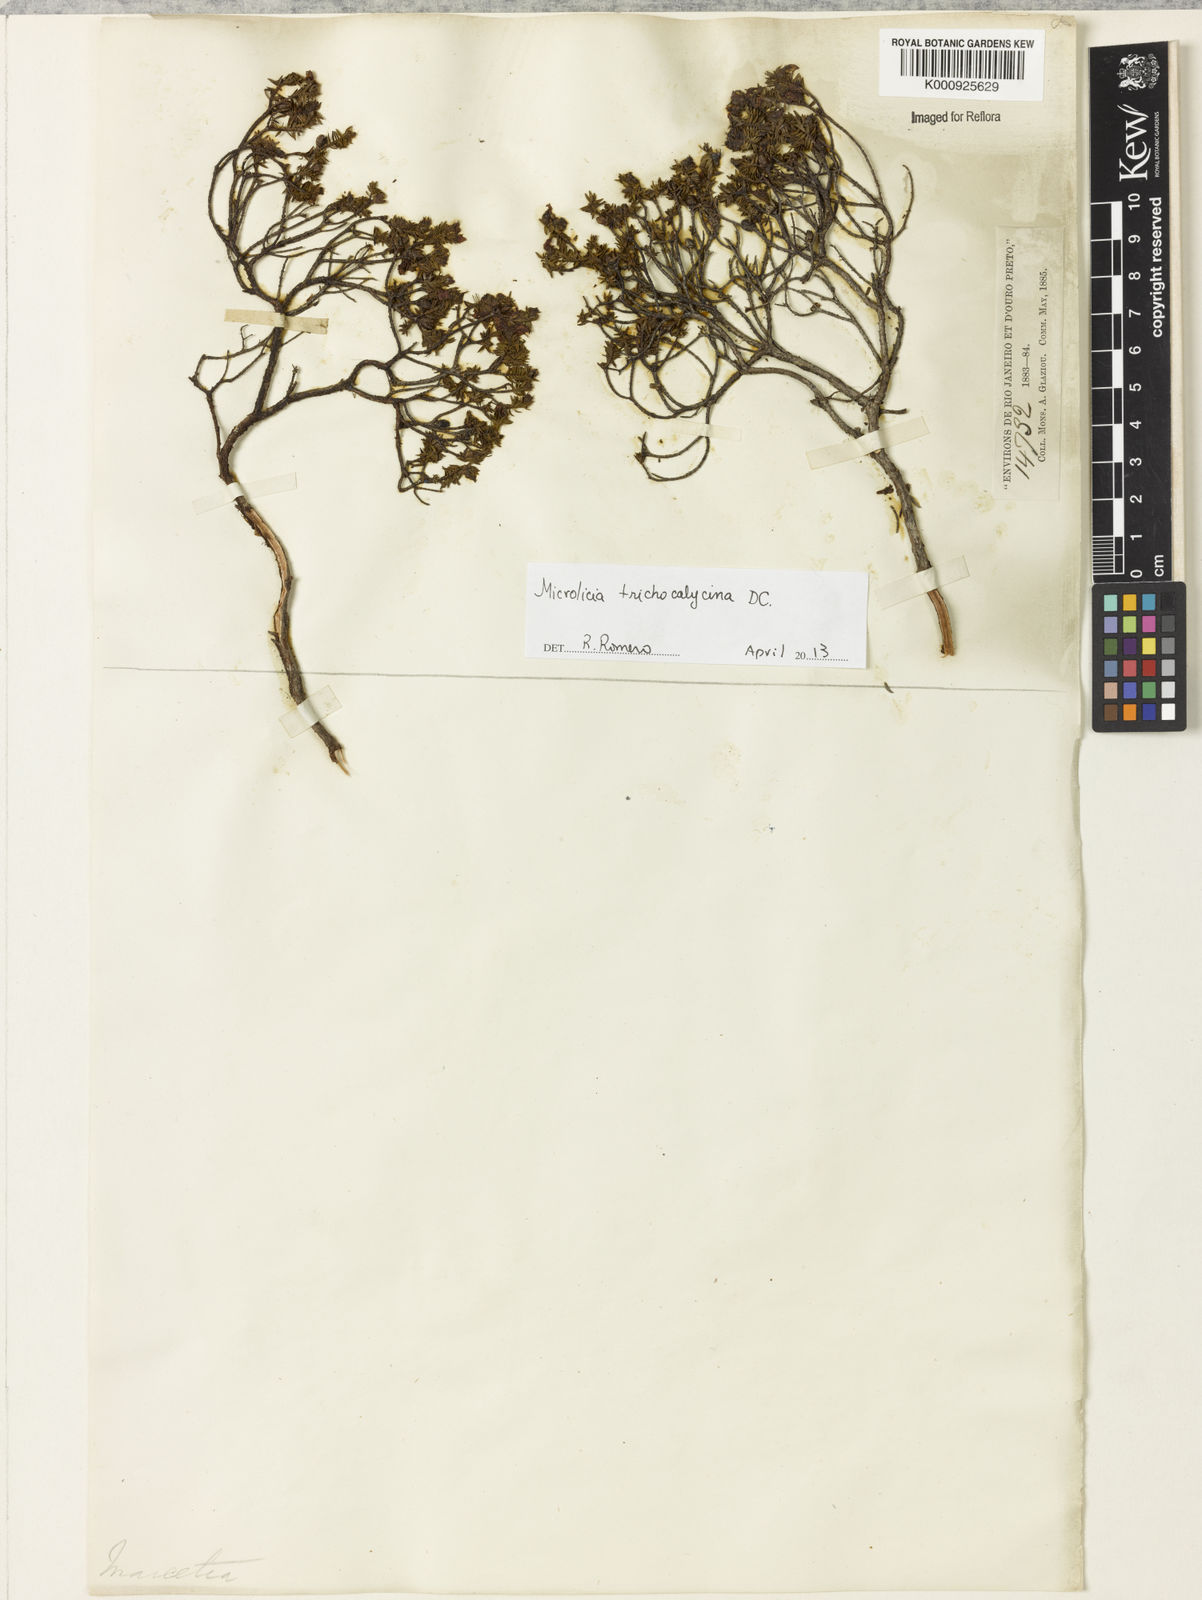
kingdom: Plantae
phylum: Tracheophyta
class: Magnoliopsida
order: Myrtales
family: Melastomataceae
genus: Microlicia
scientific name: Microlicia trichocalycina
